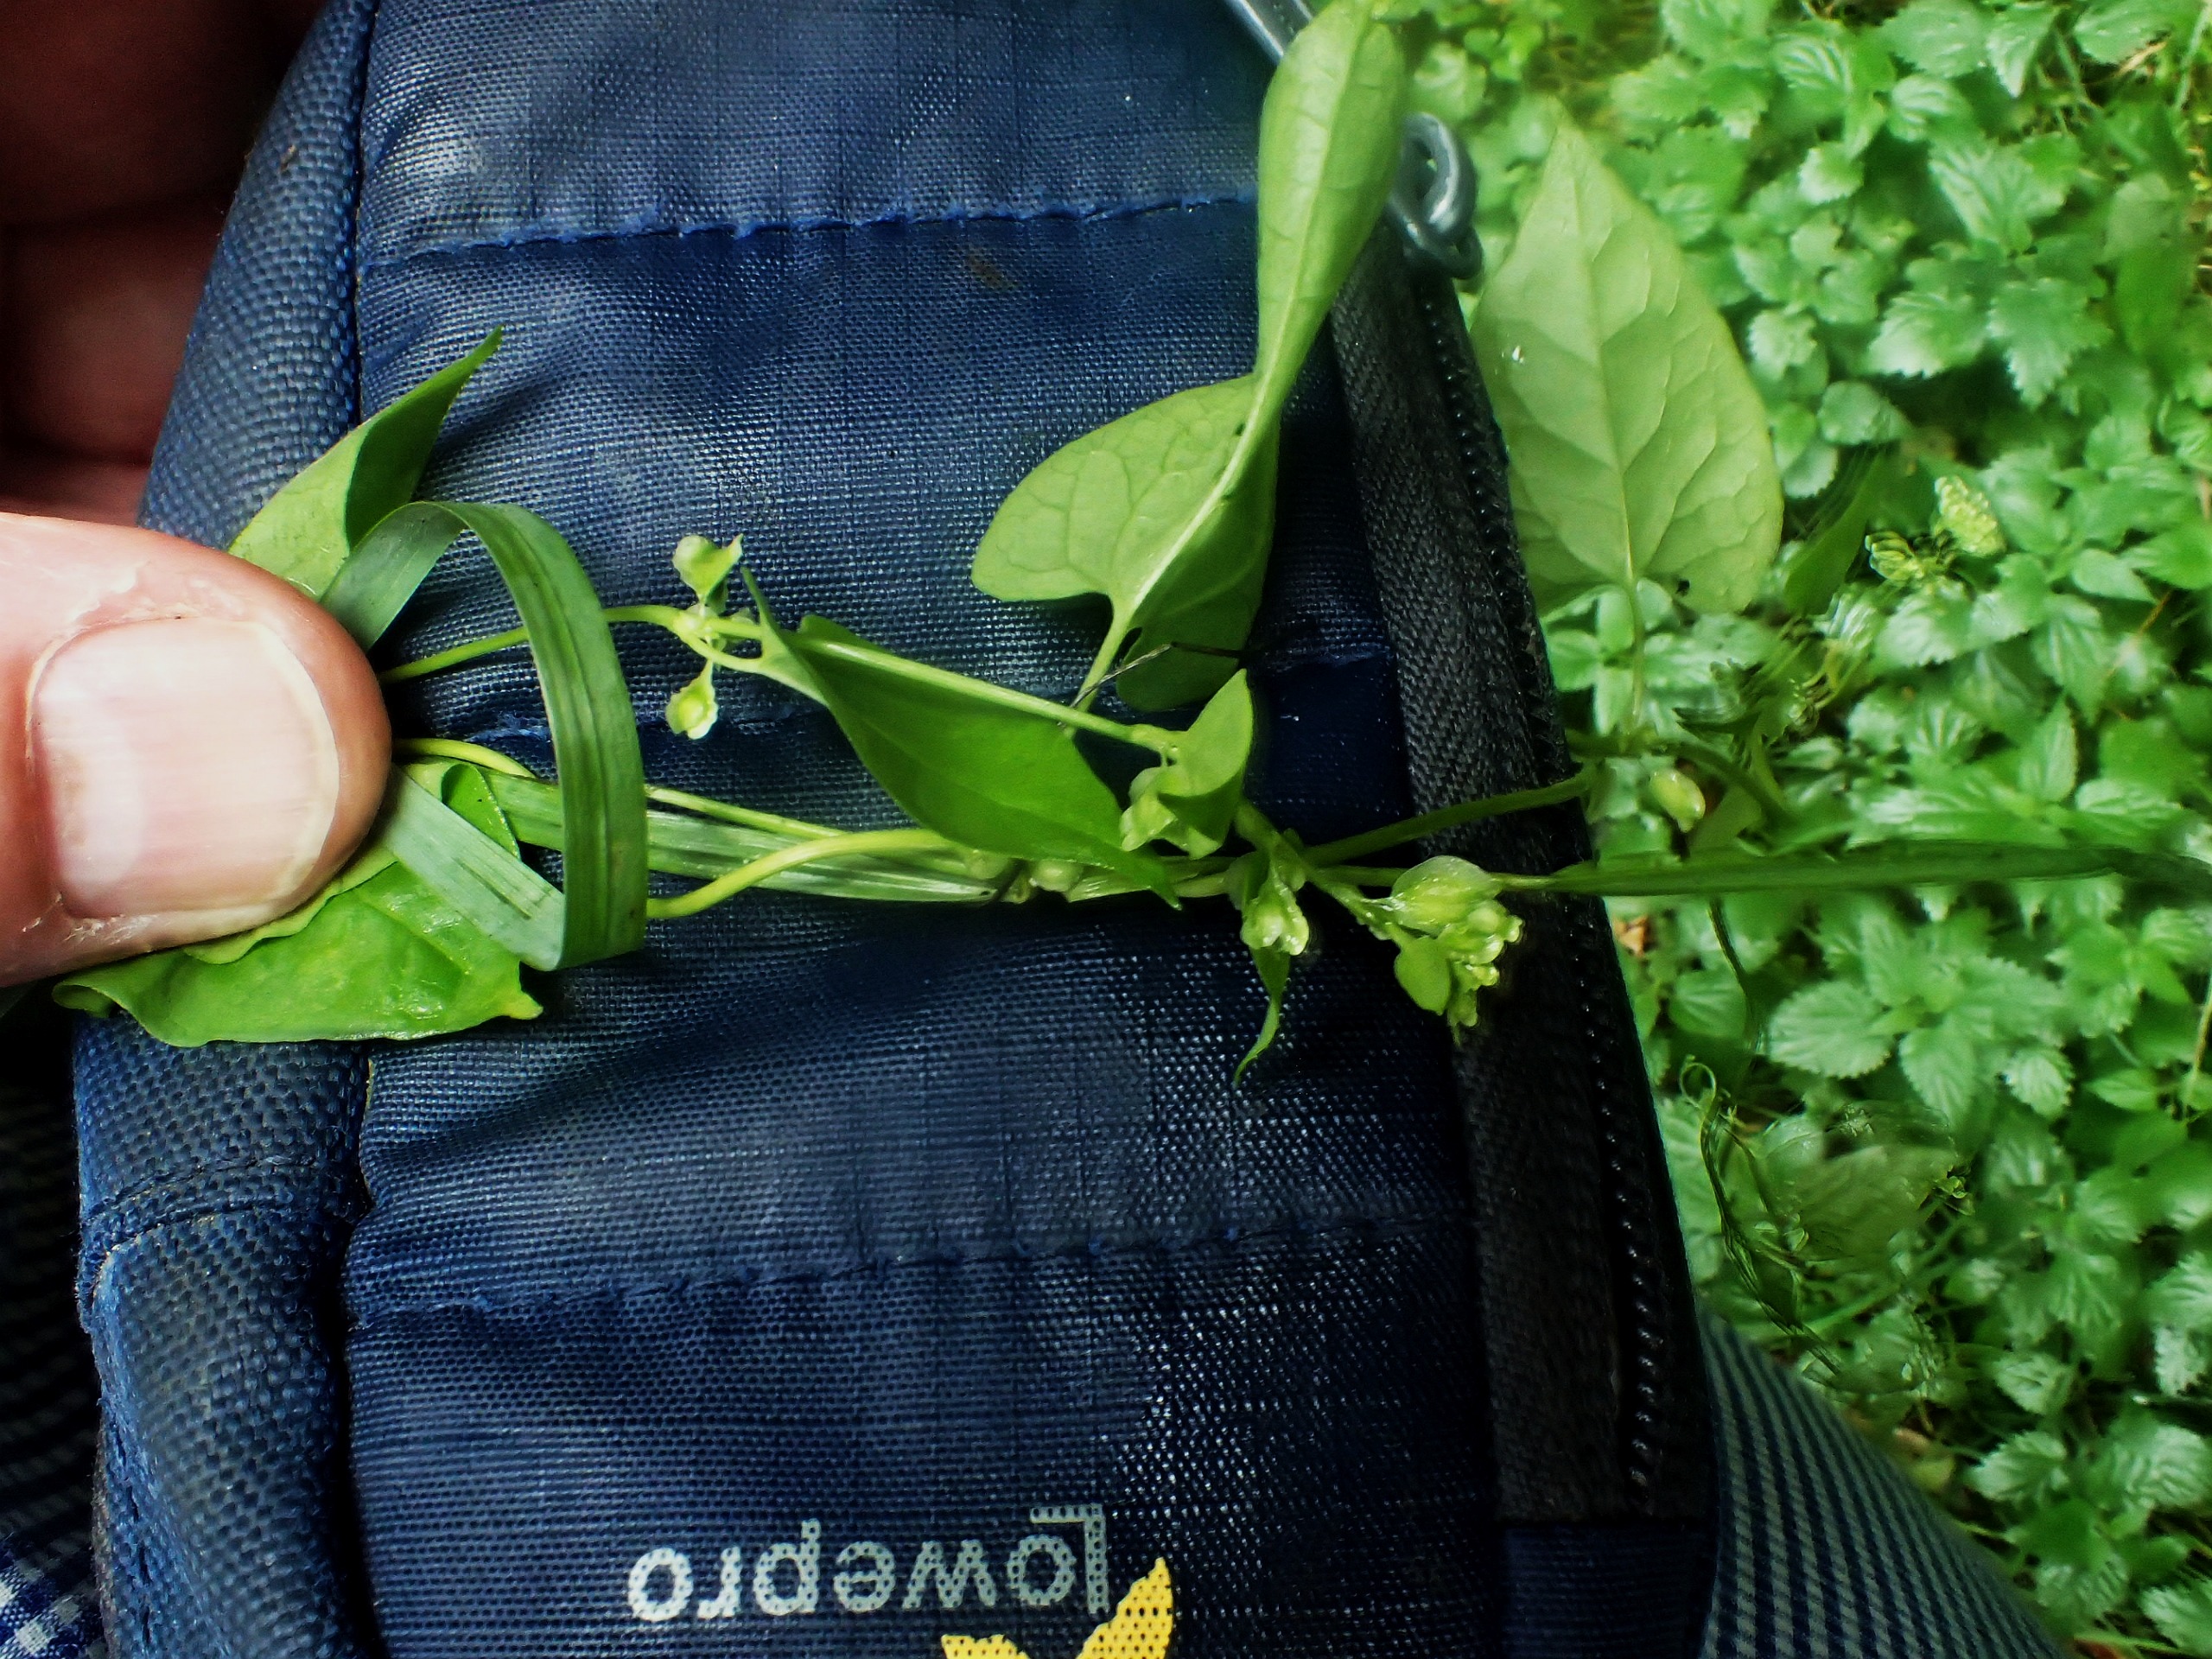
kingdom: Plantae
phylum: Tracheophyta
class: Magnoliopsida
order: Caryophyllales
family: Polygonaceae
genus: Fallopia
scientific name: Fallopia dumetorum
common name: Vinge-pileurt
